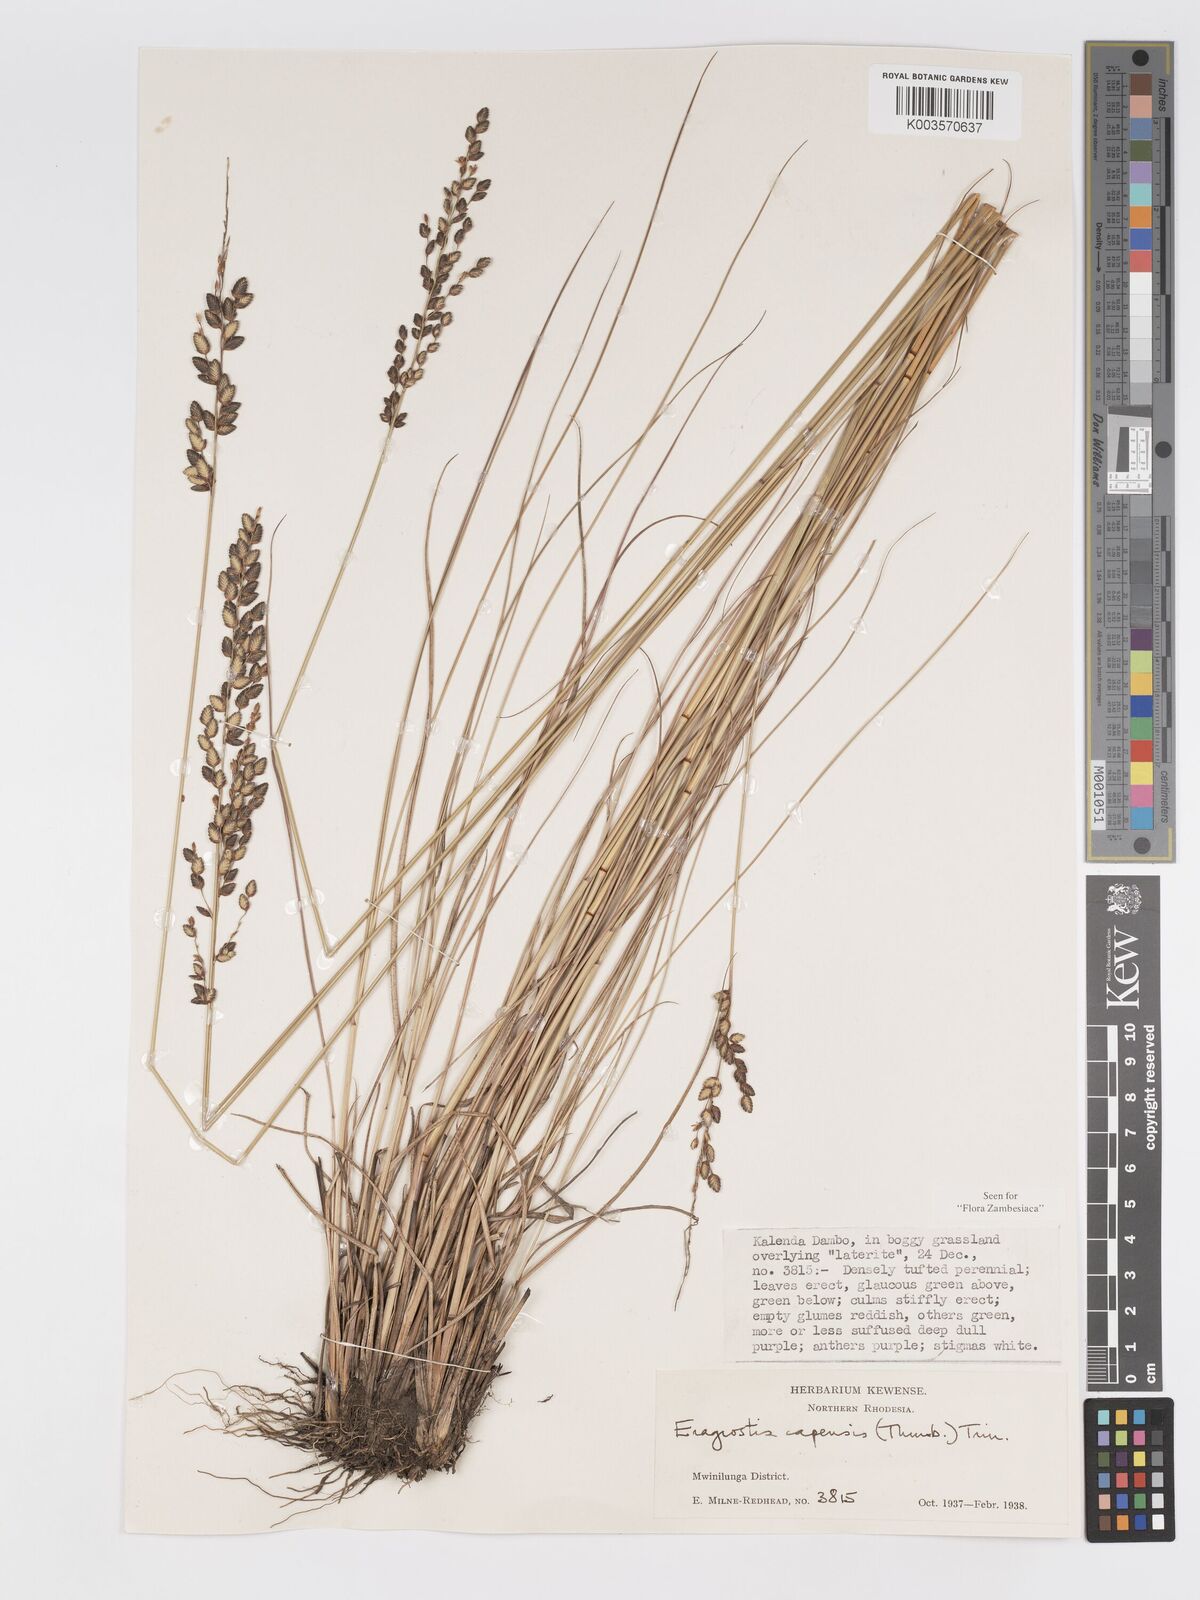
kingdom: Plantae
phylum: Tracheophyta
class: Liliopsida
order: Poales
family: Poaceae
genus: Eragrostis
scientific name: Eragrostis capensis
